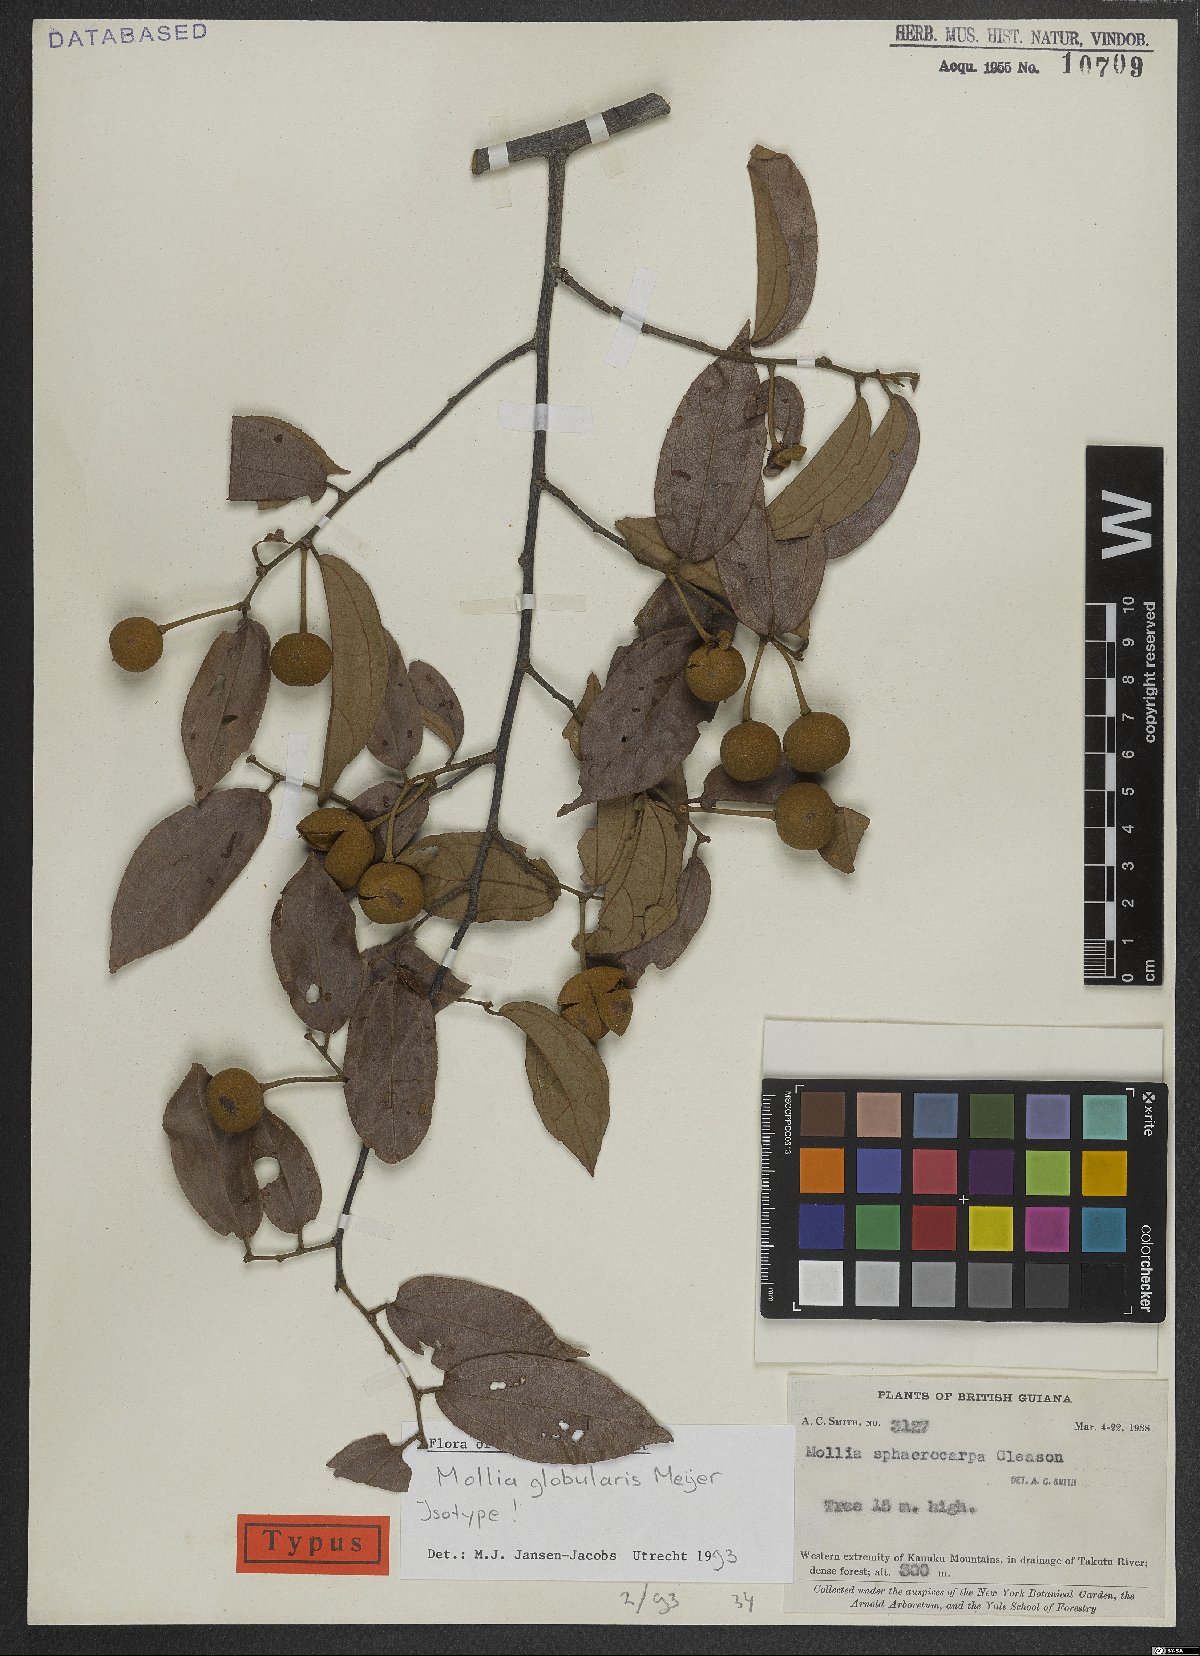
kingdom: Plantae
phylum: Tracheophyta
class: Magnoliopsida
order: Malvales
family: Malvaceae
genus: Mollia
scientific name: Mollia globularis
